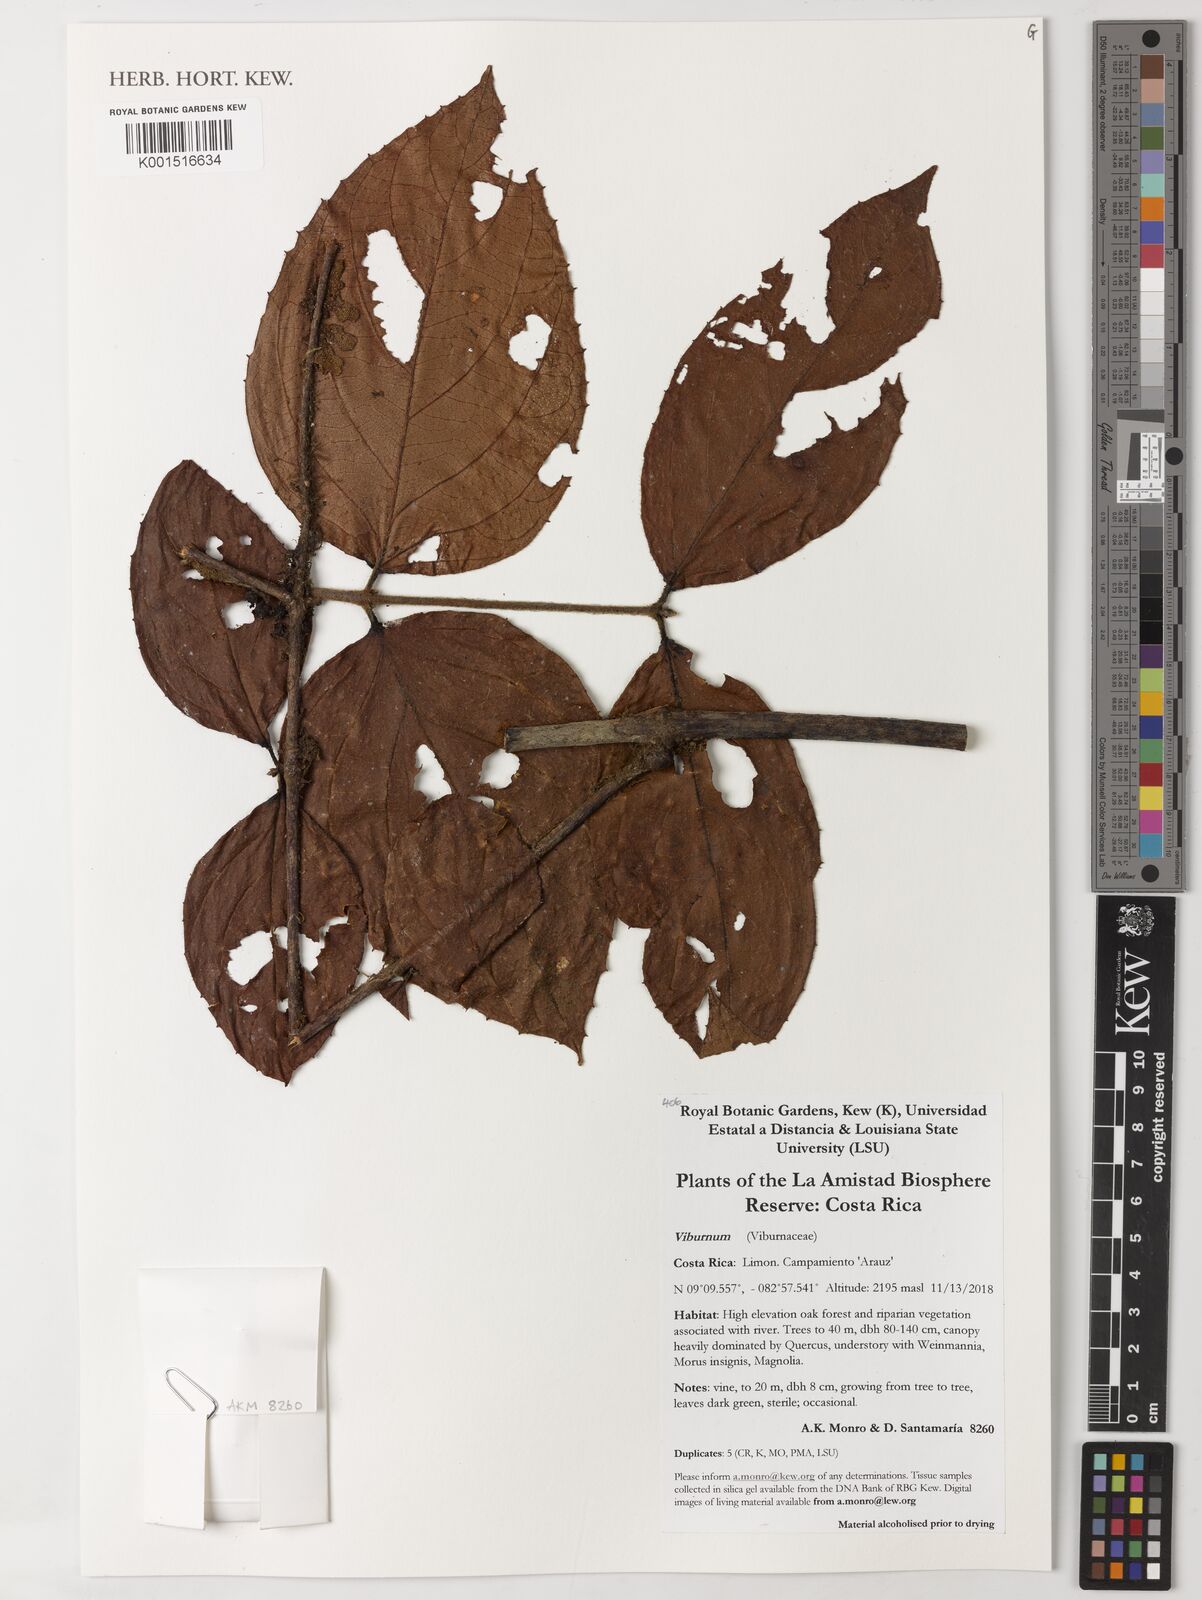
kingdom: Plantae
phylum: Tracheophyta
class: Magnoliopsida
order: Dipsacales
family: Viburnaceae
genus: Viburnum
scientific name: Viburnum
